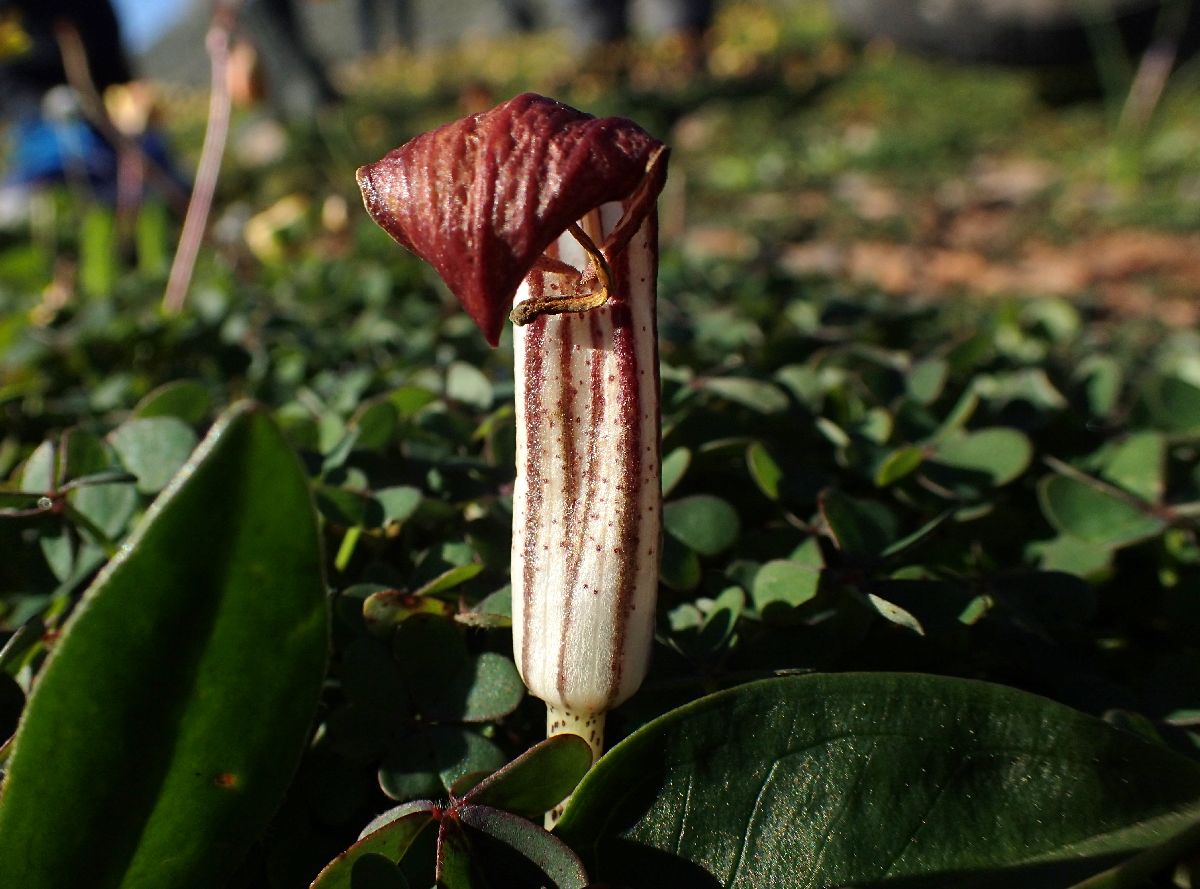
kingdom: Plantae
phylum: Tracheophyta
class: Liliopsida
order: Alismatales
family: Araceae
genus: Arisarum
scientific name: Arisarum vulgare
